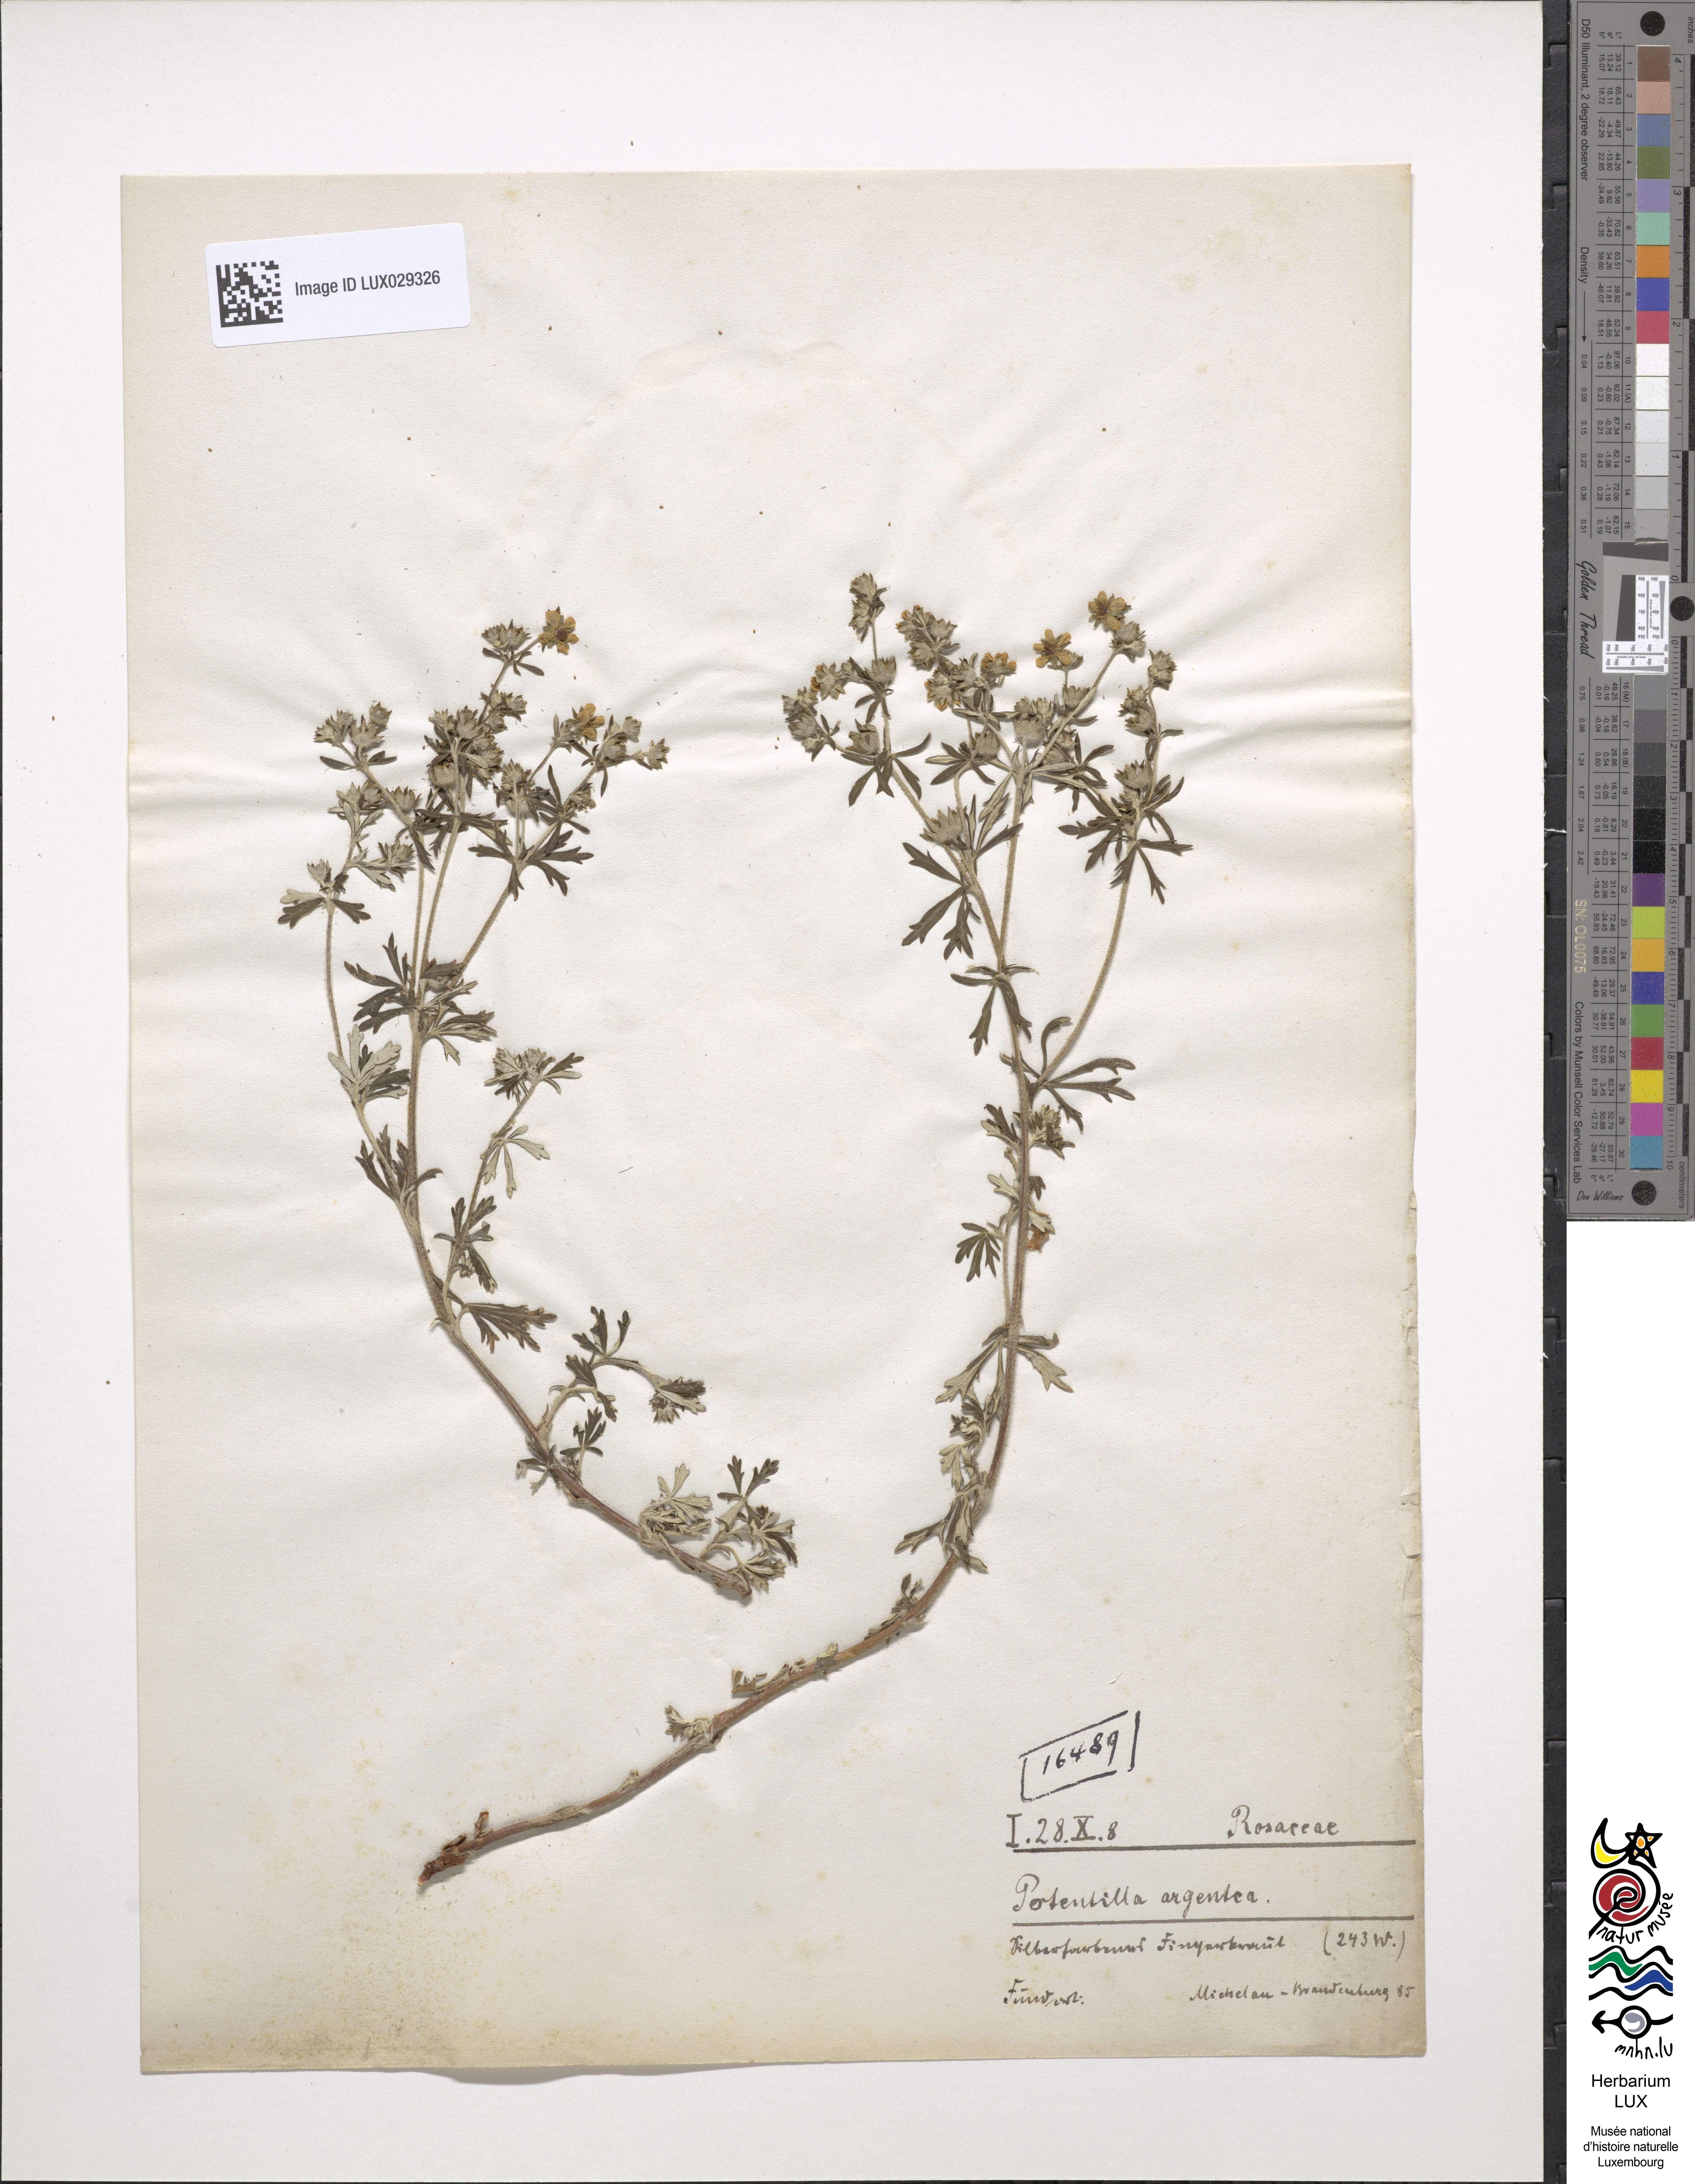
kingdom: Plantae
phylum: Tracheophyta
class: Magnoliopsida
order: Rosales
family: Rosaceae
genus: Potentilla
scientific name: Potentilla argentea
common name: Hoary cinquefoil
